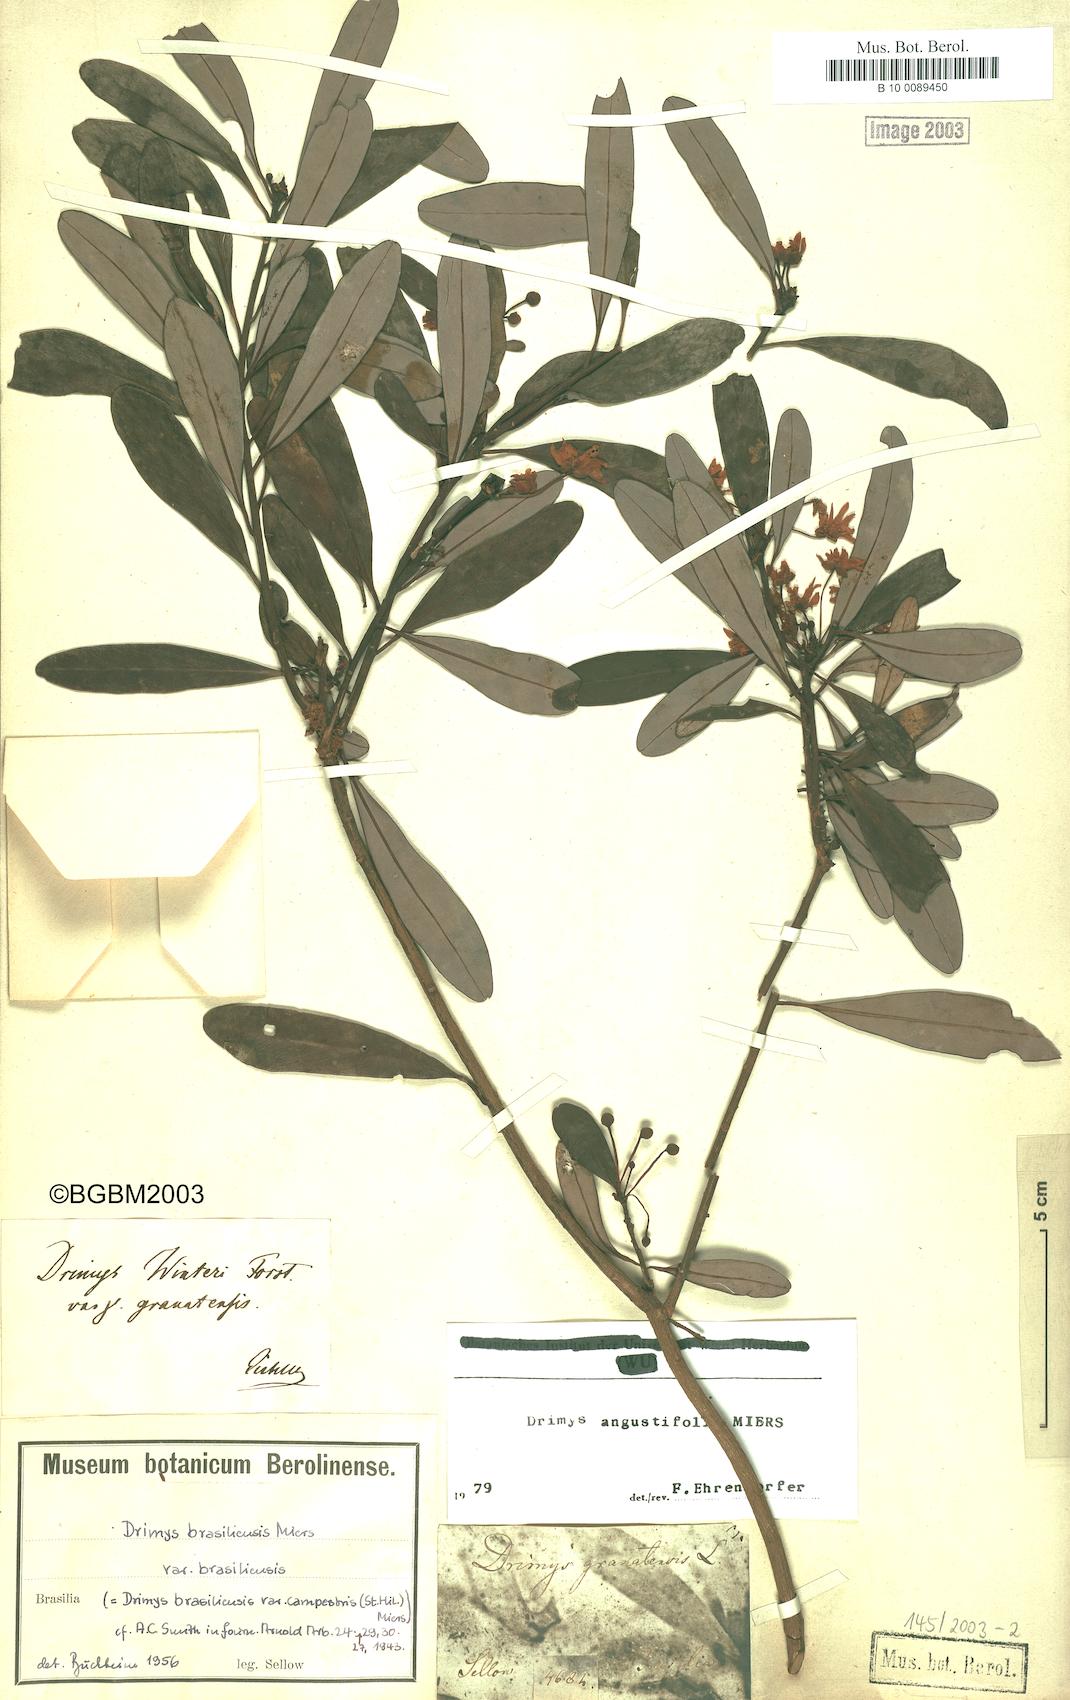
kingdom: Plantae
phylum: Tracheophyta
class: Magnoliopsida
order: Canellales
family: Winteraceae
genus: Drimys
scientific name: Drimys angustifolia
